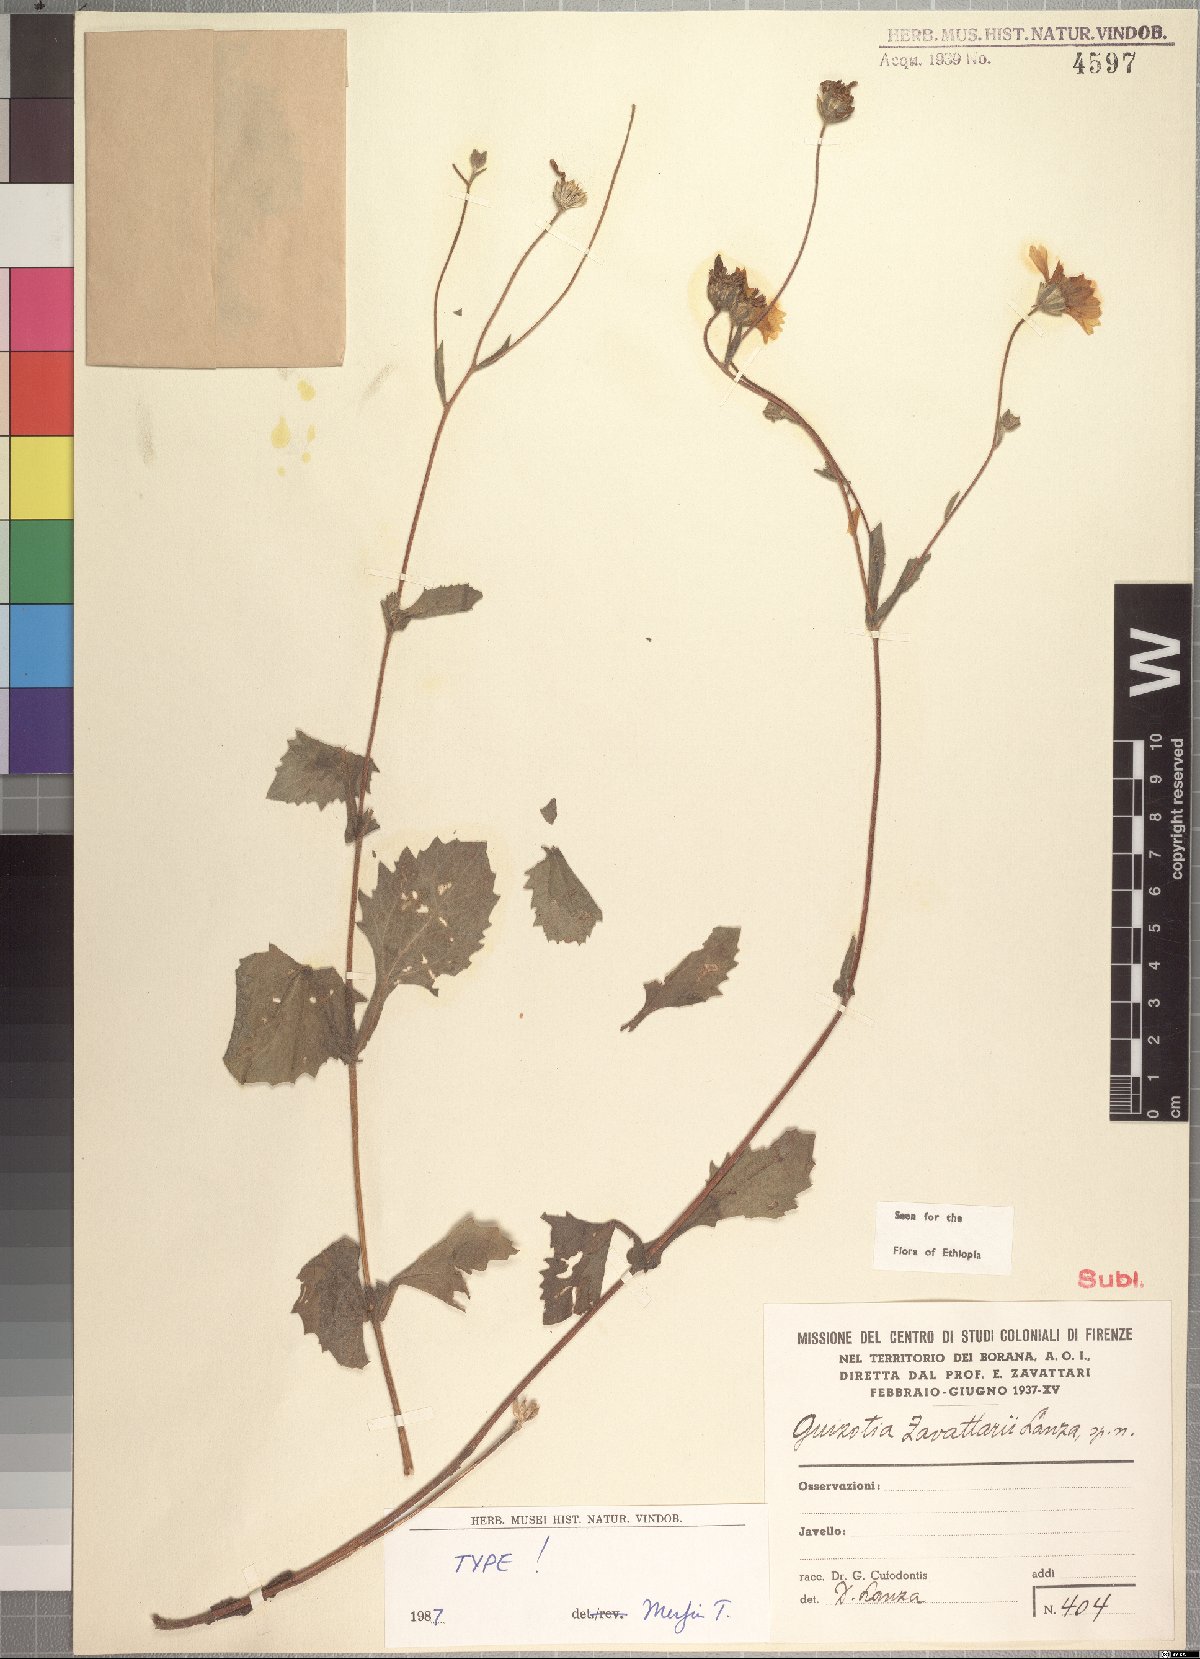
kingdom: Plantae
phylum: Tracheophyta
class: Magnoliopsida
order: Asterales
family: Asteraceae
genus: Guizotia
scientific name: Guizotia zavattarii
